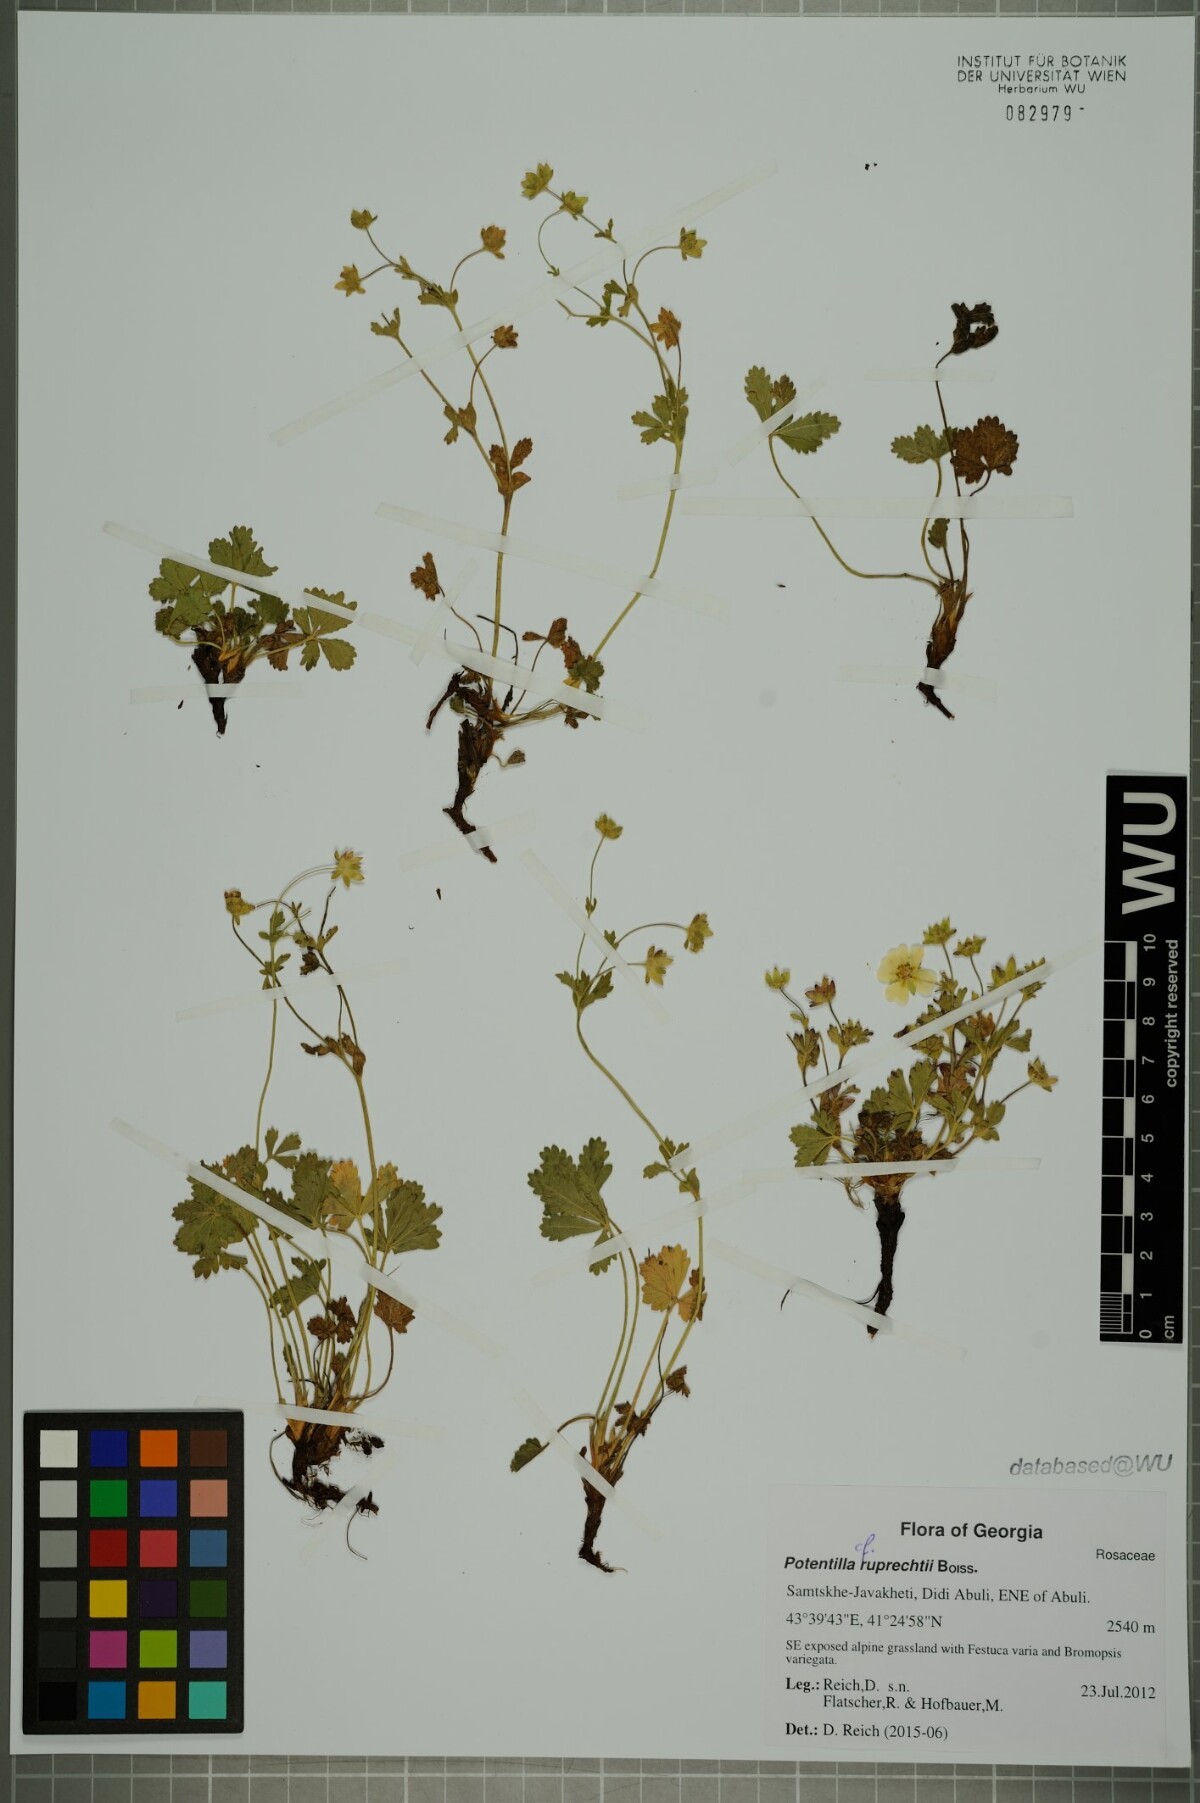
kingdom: Plantae
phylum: Tracheophyta
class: Magnoliopsida
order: Rosales
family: Rosaceae
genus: Potentilla
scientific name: Potentilla ruprechtii
